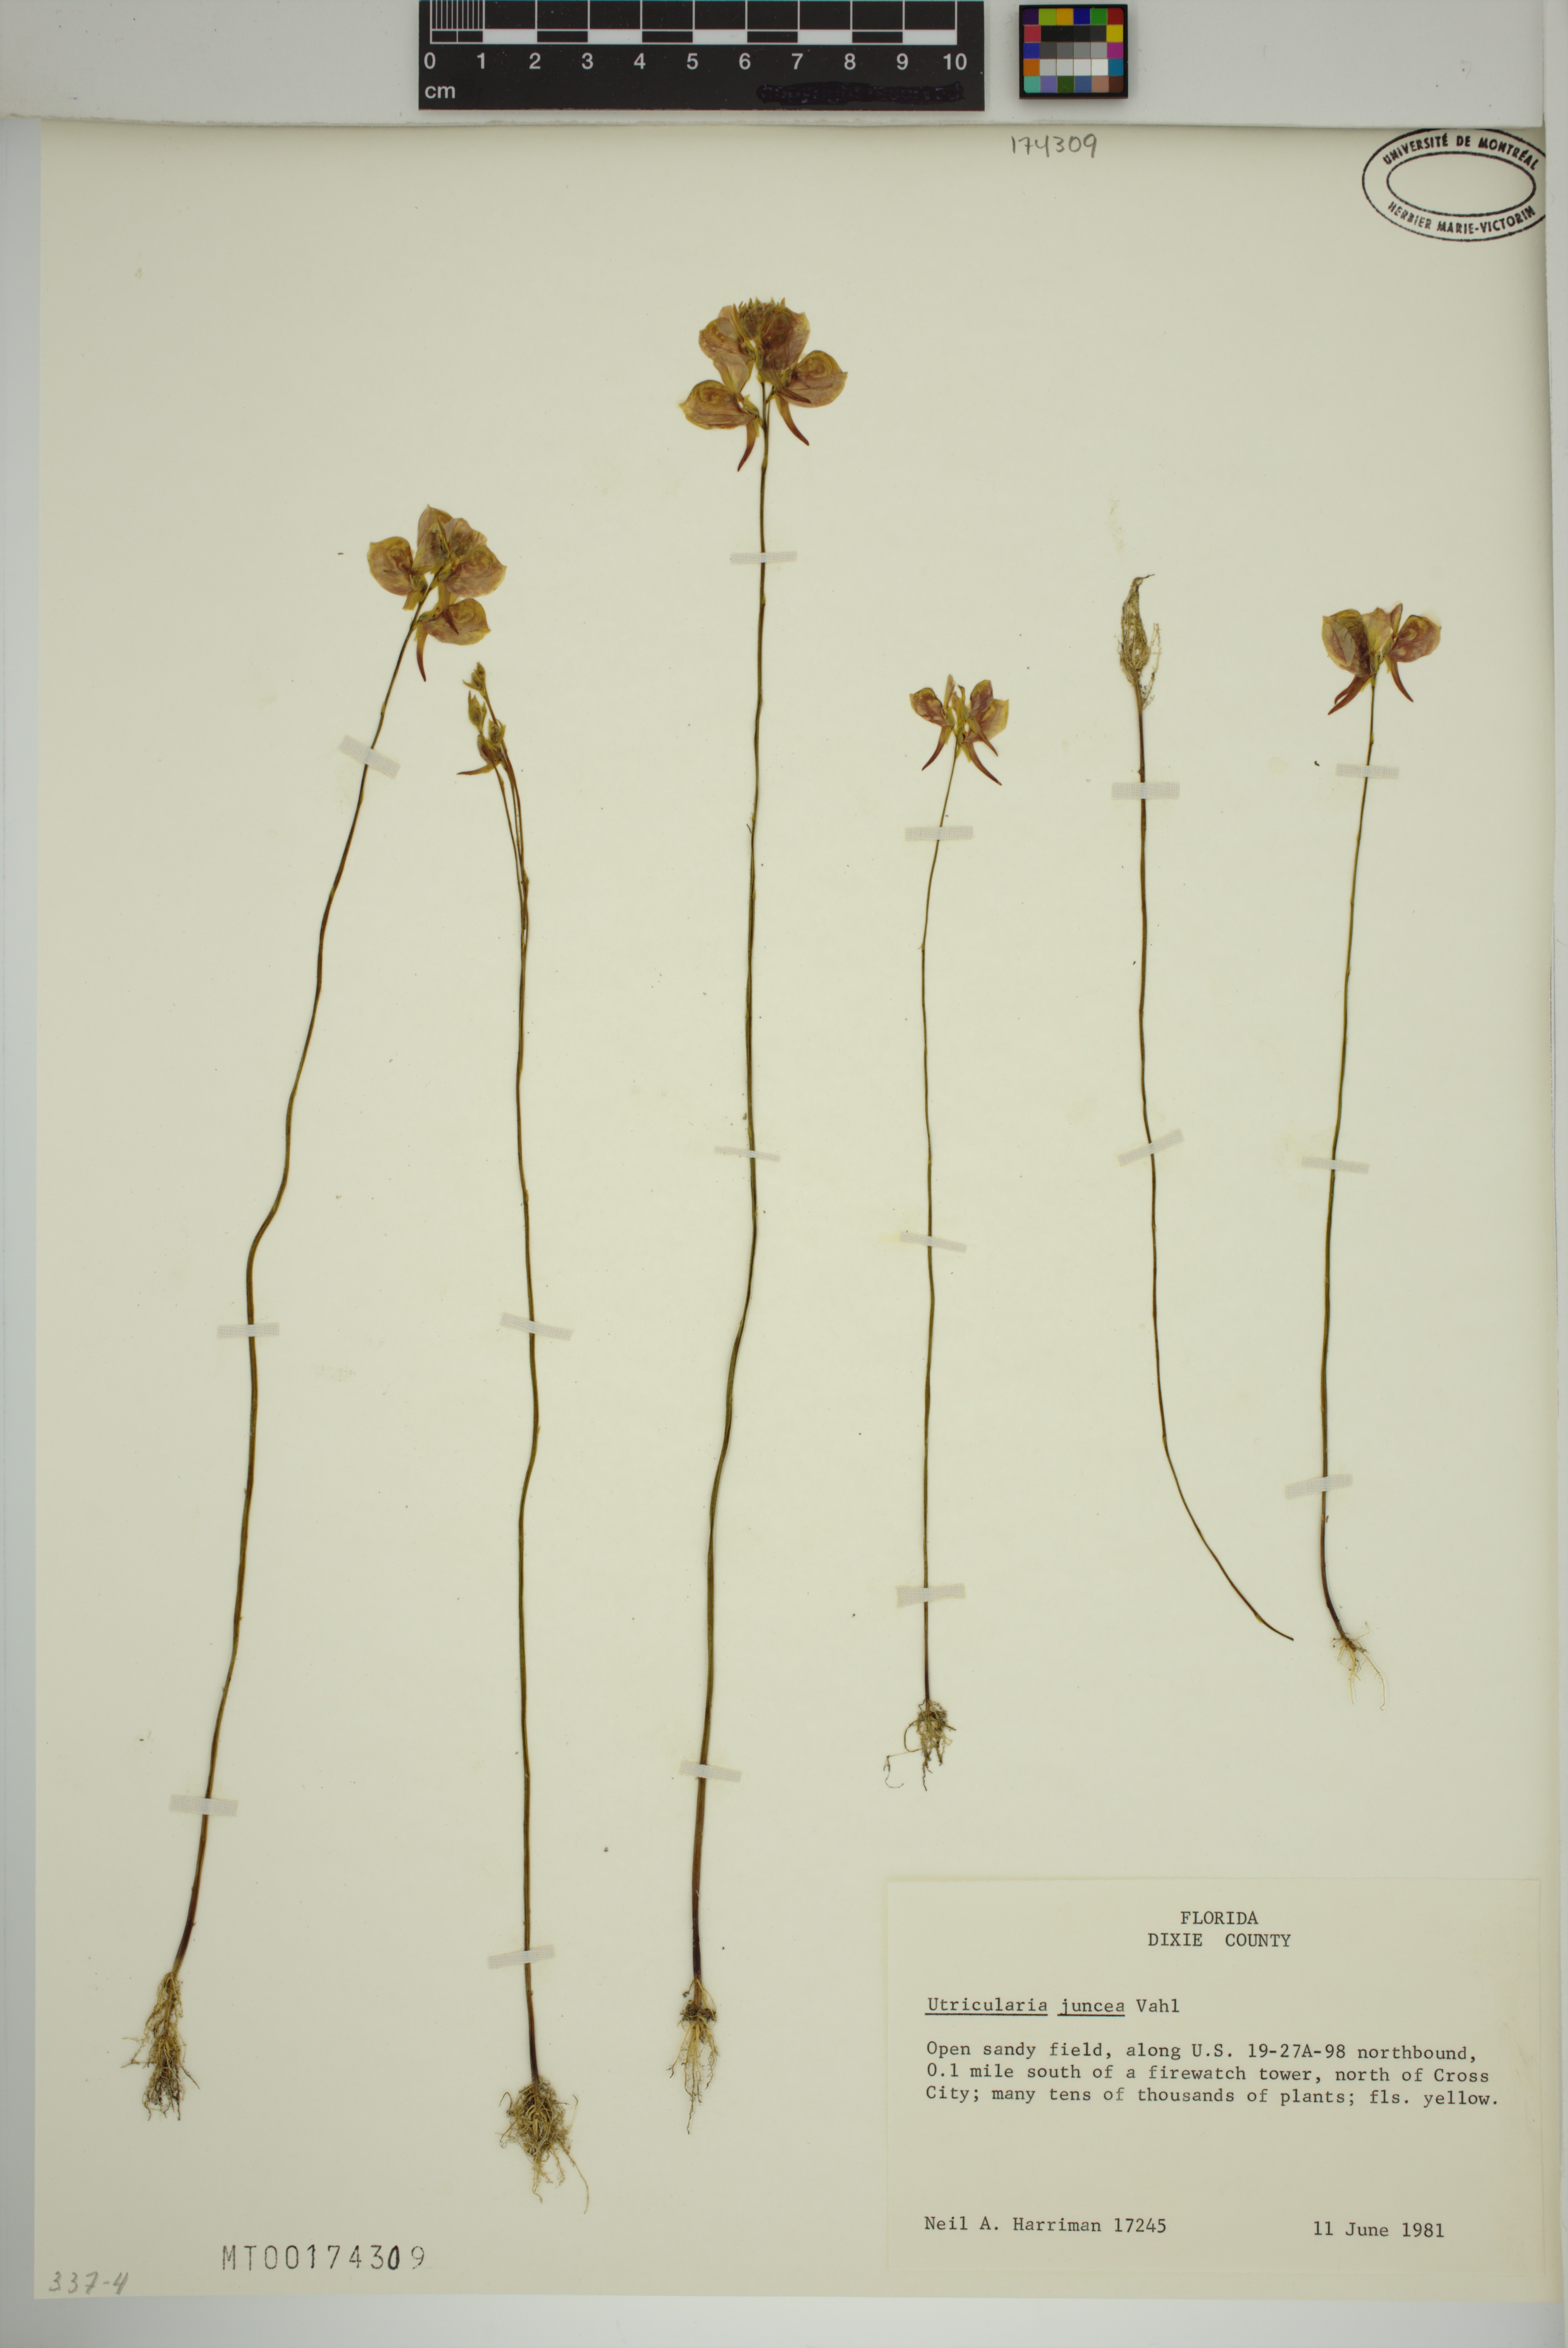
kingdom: Plantae
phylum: Tracheophyta
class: Magnoliopsida
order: Lamiales
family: Lentibulariaceae
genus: Utricularia
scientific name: Utricularia juncea
